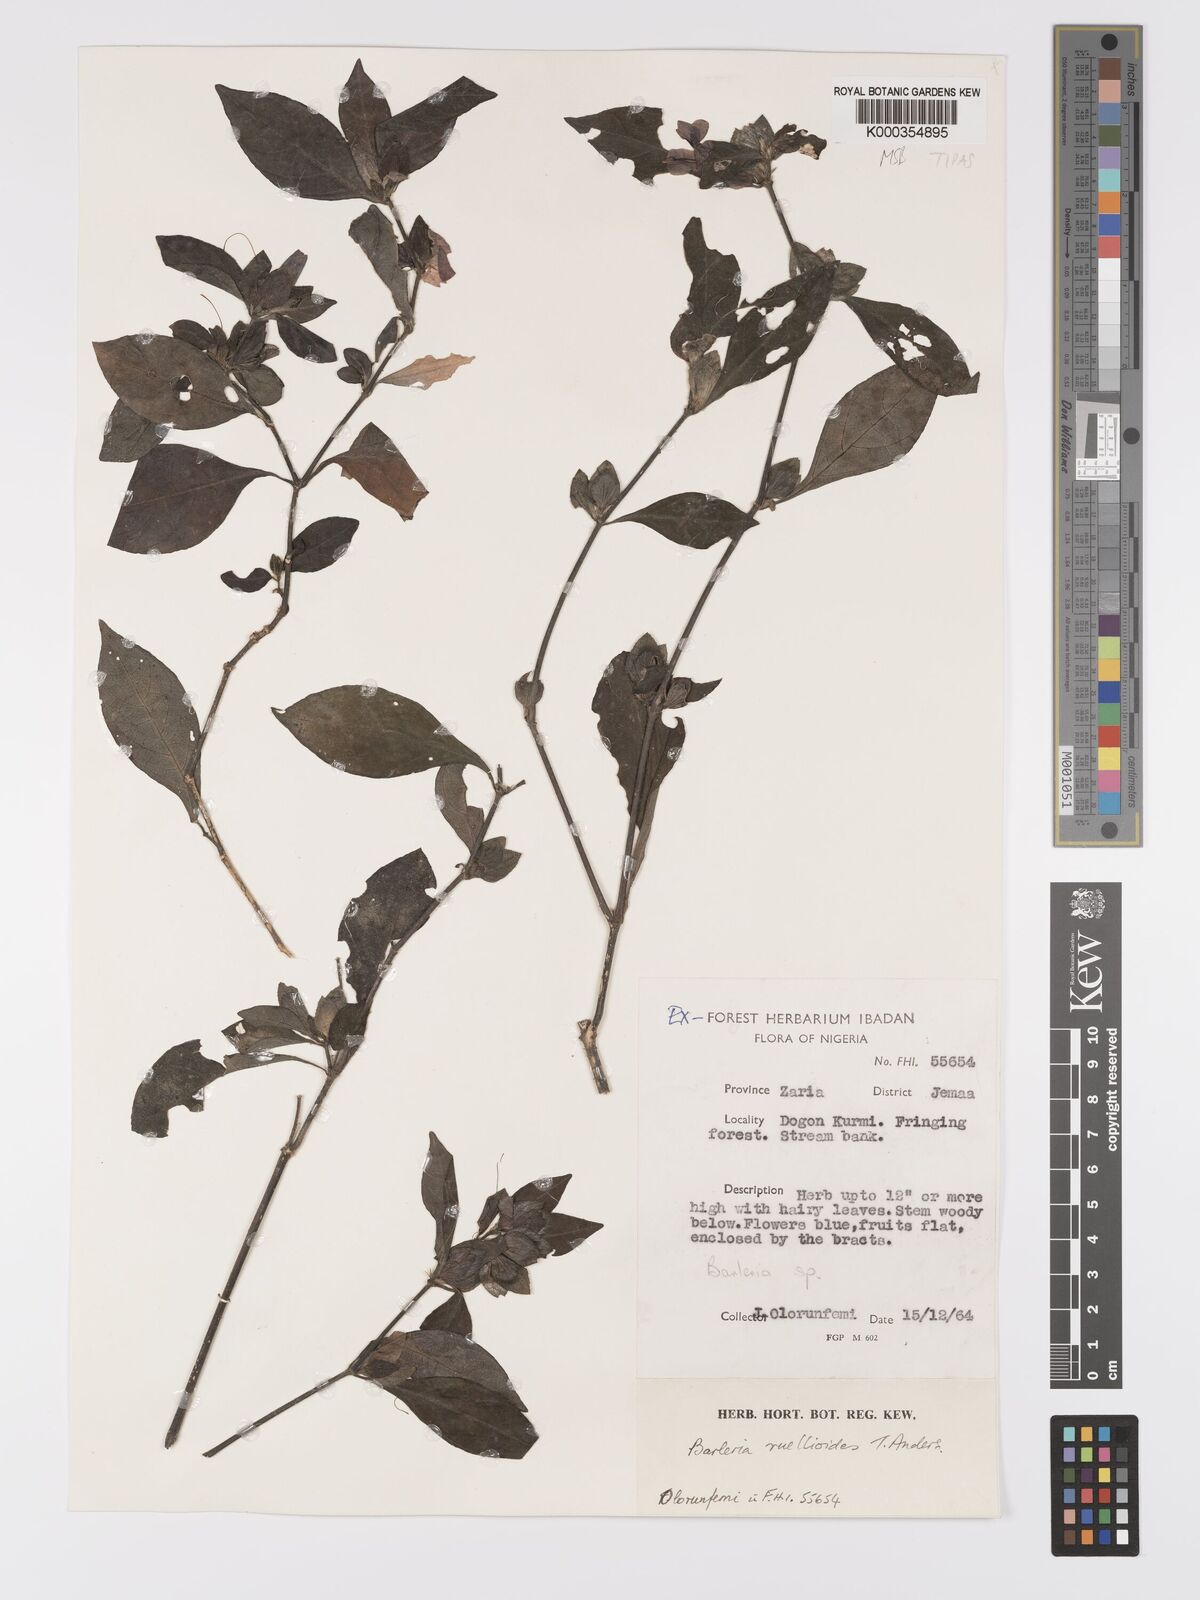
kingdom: Plantae
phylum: Tracheophyta
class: Magnoliopsida
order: Lamiales
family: Acanthaceae
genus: Barleria
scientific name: Barleria ruellioides
